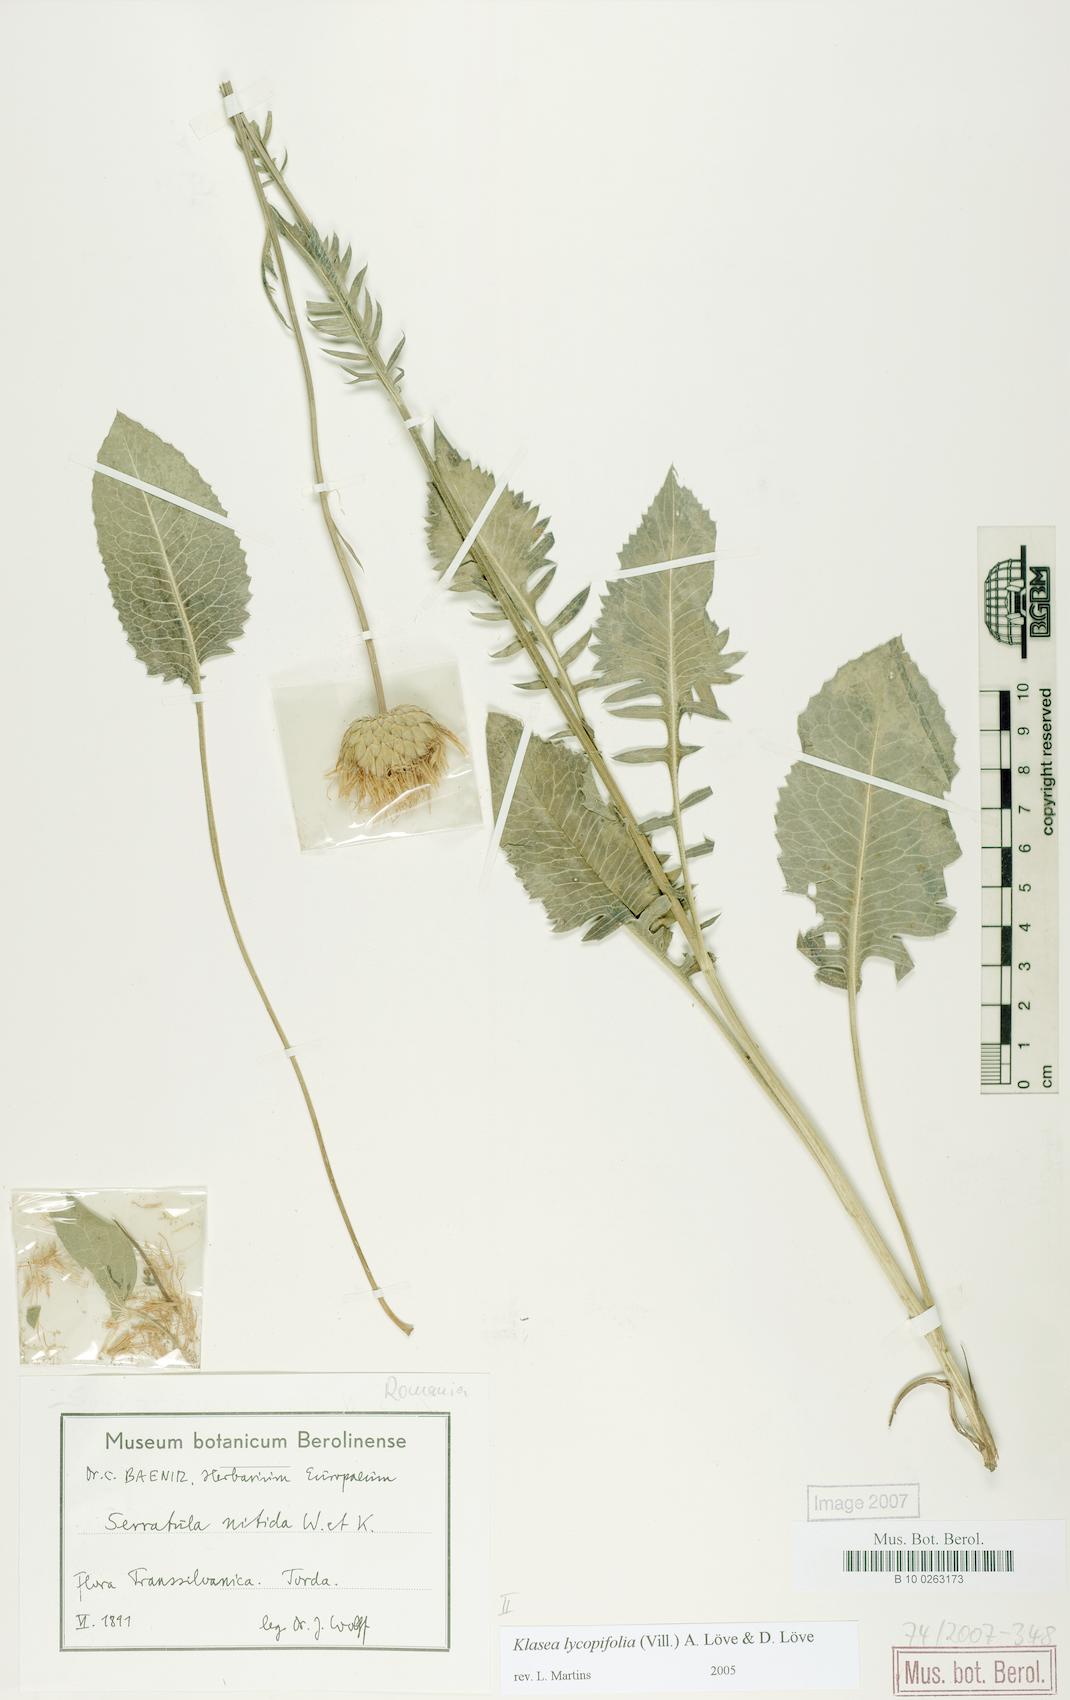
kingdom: Plantae
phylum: Tracheophyta
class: Magnoliopsida
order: Asterales
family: Asteraceae
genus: Klasea
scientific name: Klasea lycopifolia
